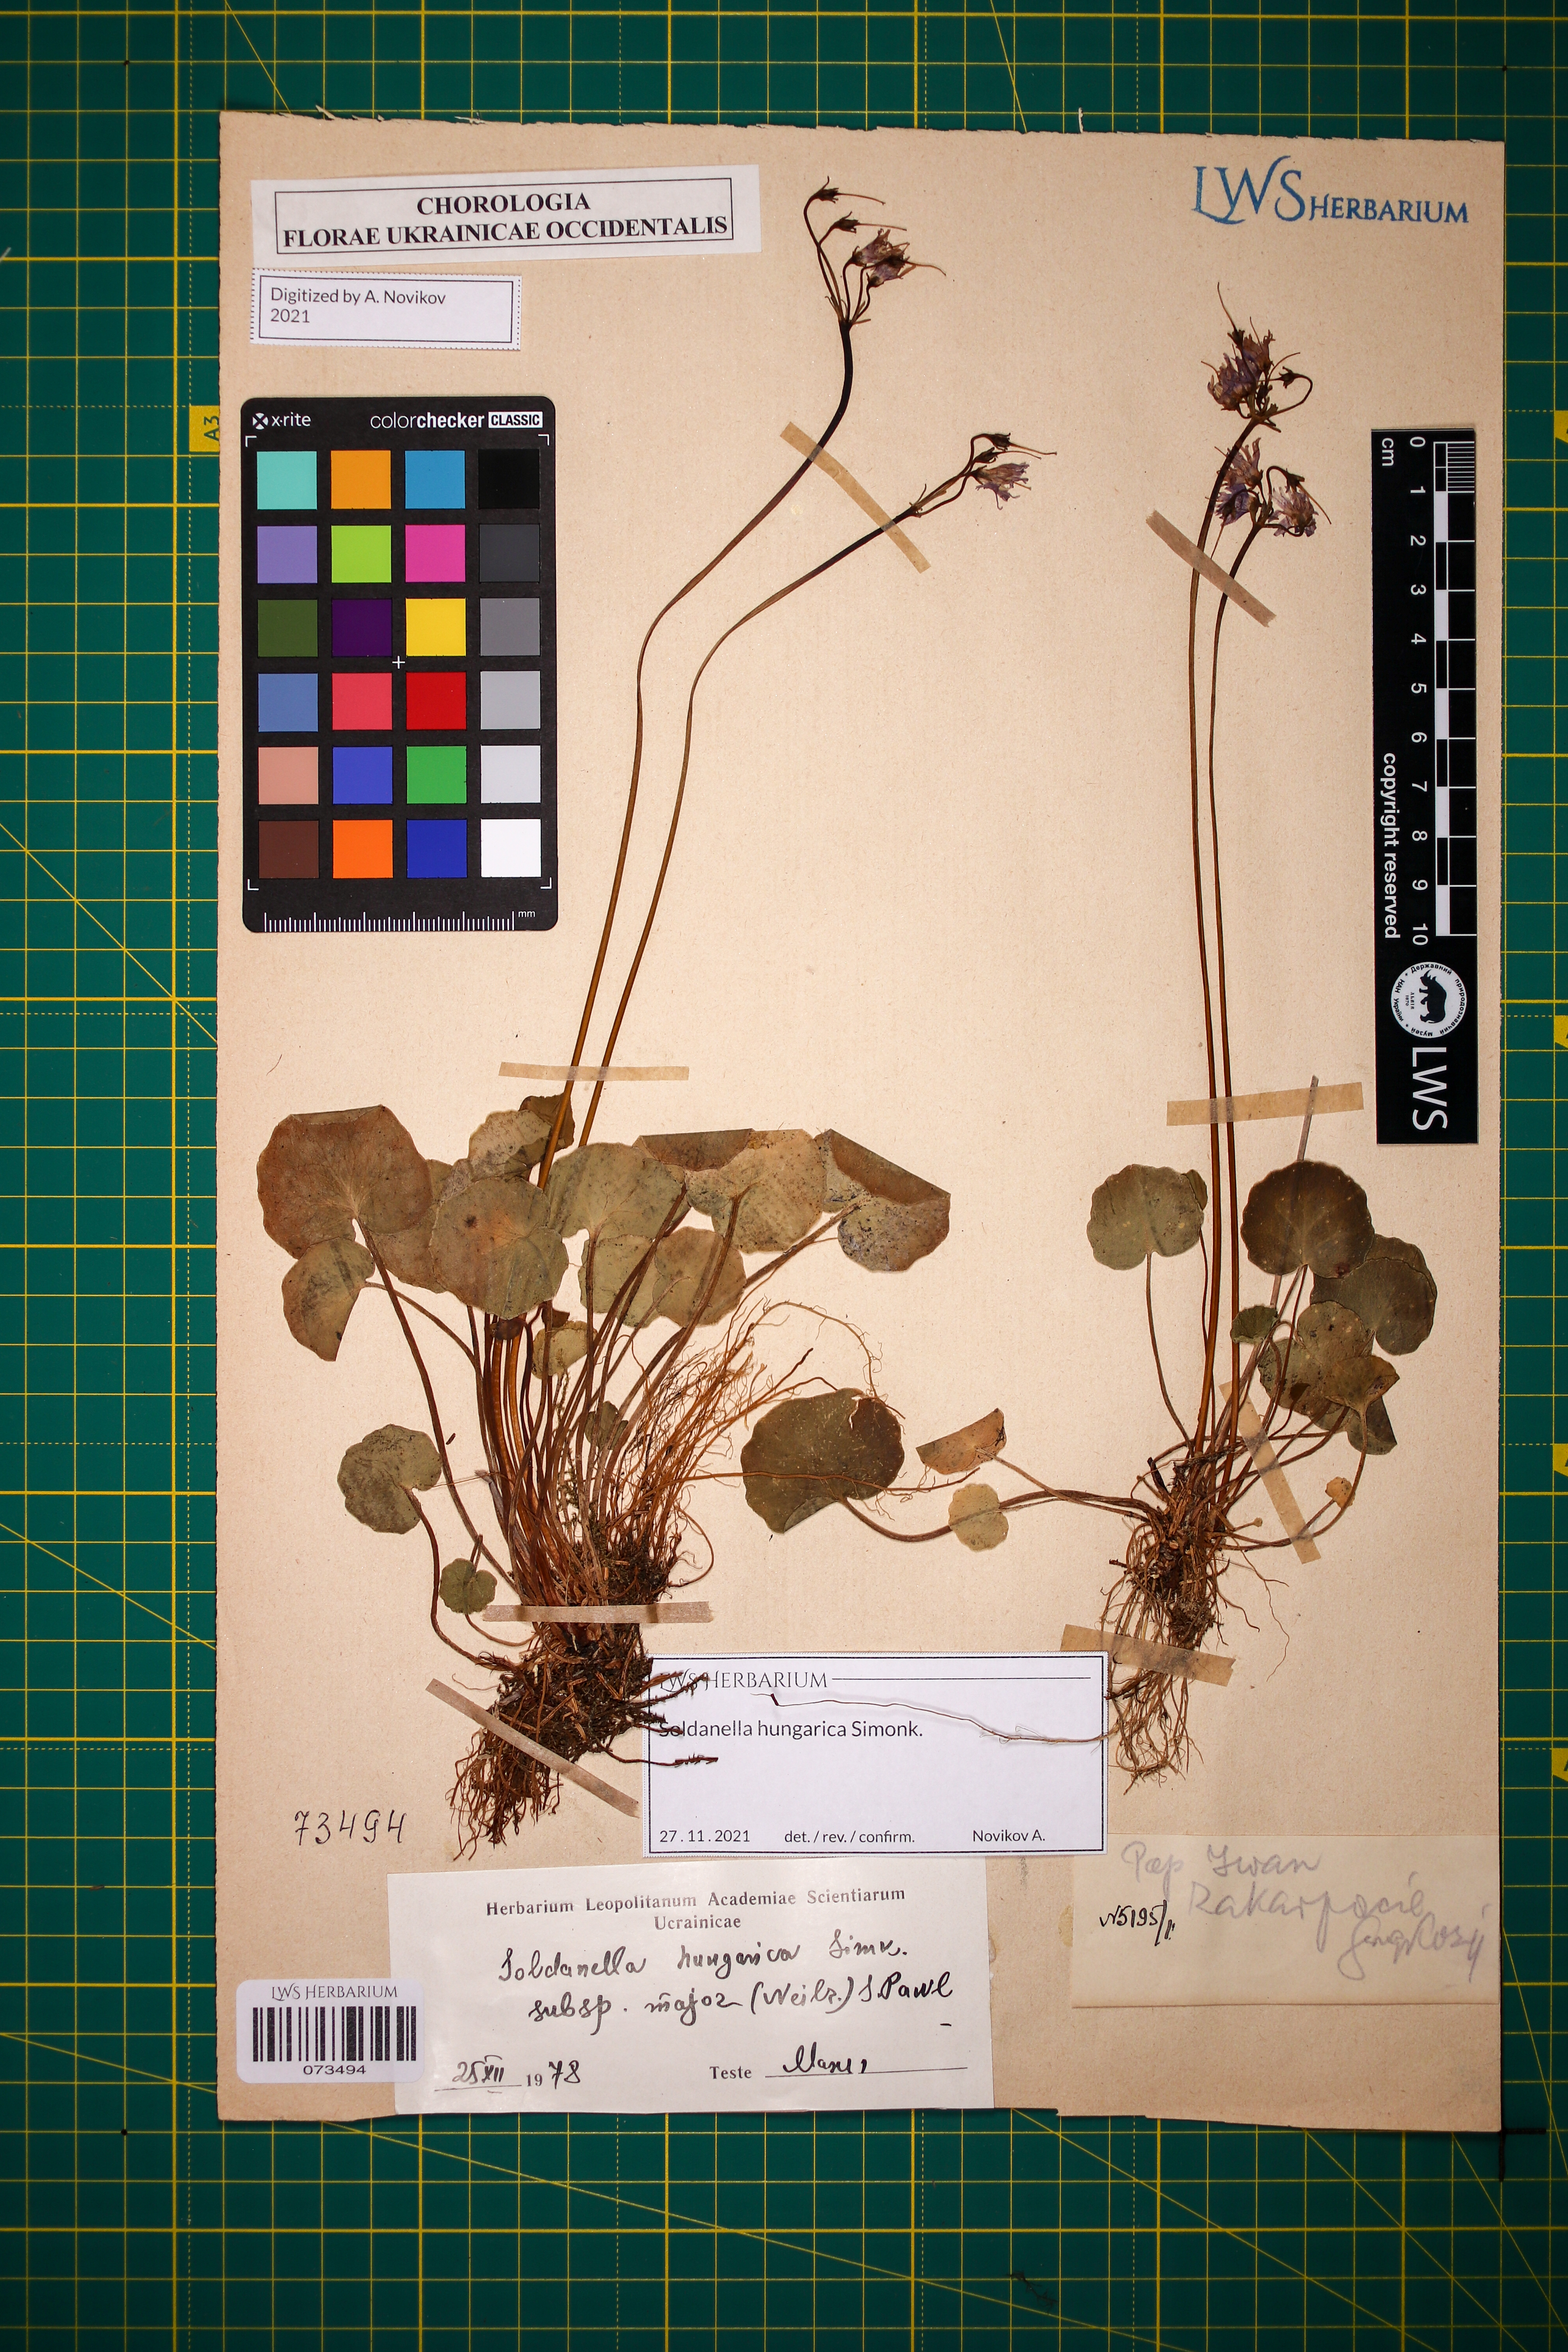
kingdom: Plantae
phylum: Tracheophyta
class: Magnoliopsida
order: Ericales
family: Primulaceae
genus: Soldanella
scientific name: Soldanella hungarica
